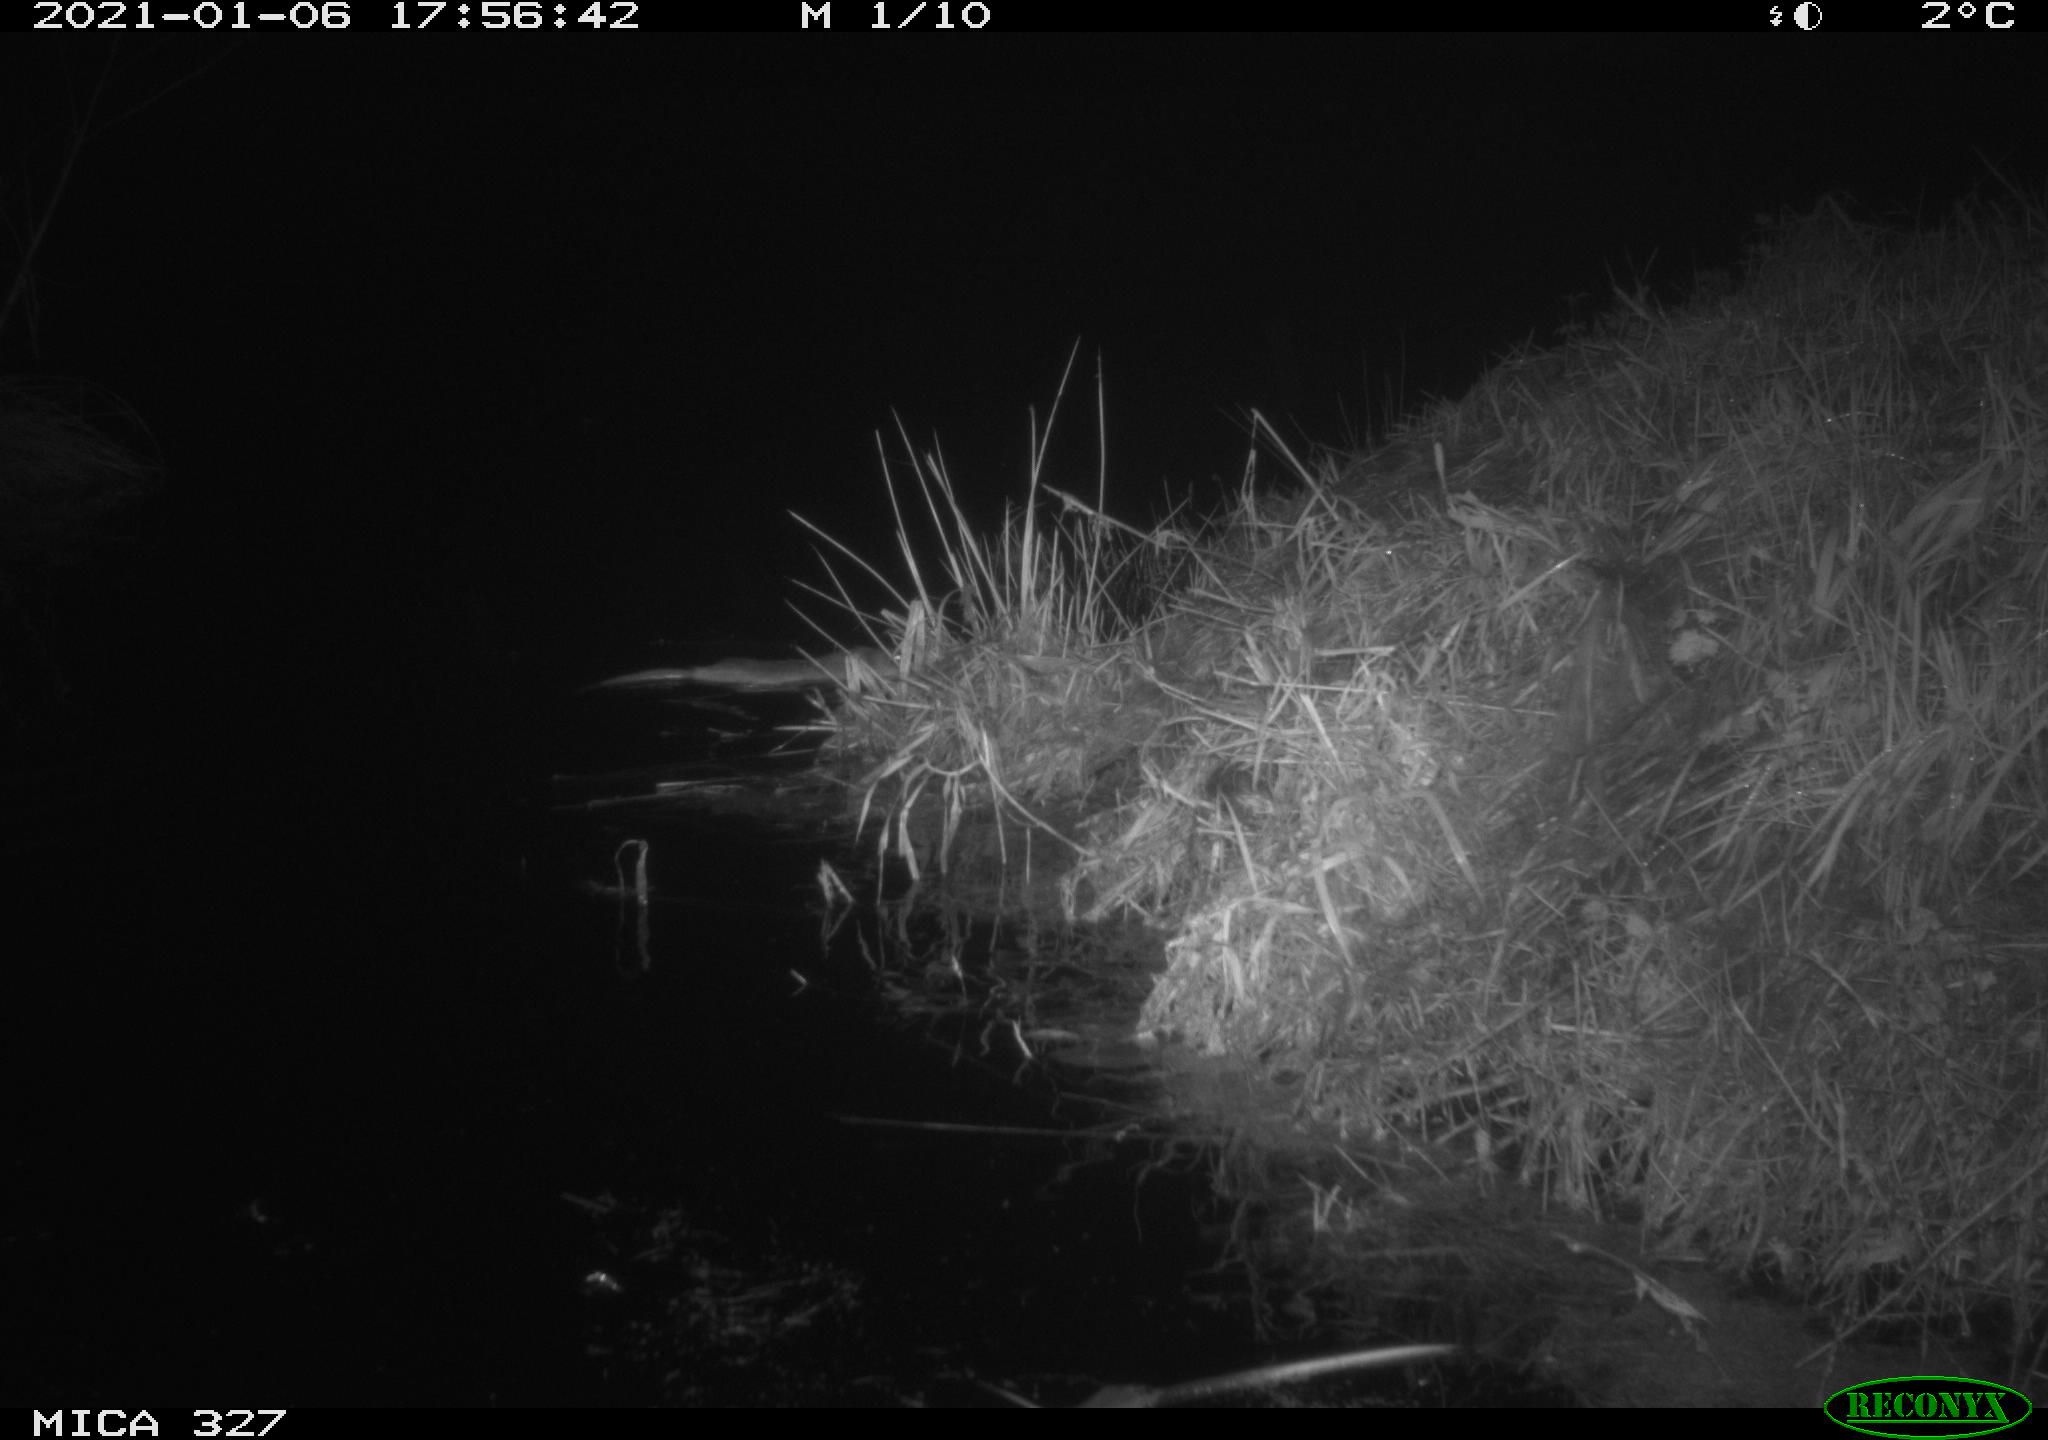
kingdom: Animalia
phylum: Chordata
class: Mammalia
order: Rodentia
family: Cricetidae
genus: Ondatra
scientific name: Ondatra zibethicus
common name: Muskrat
